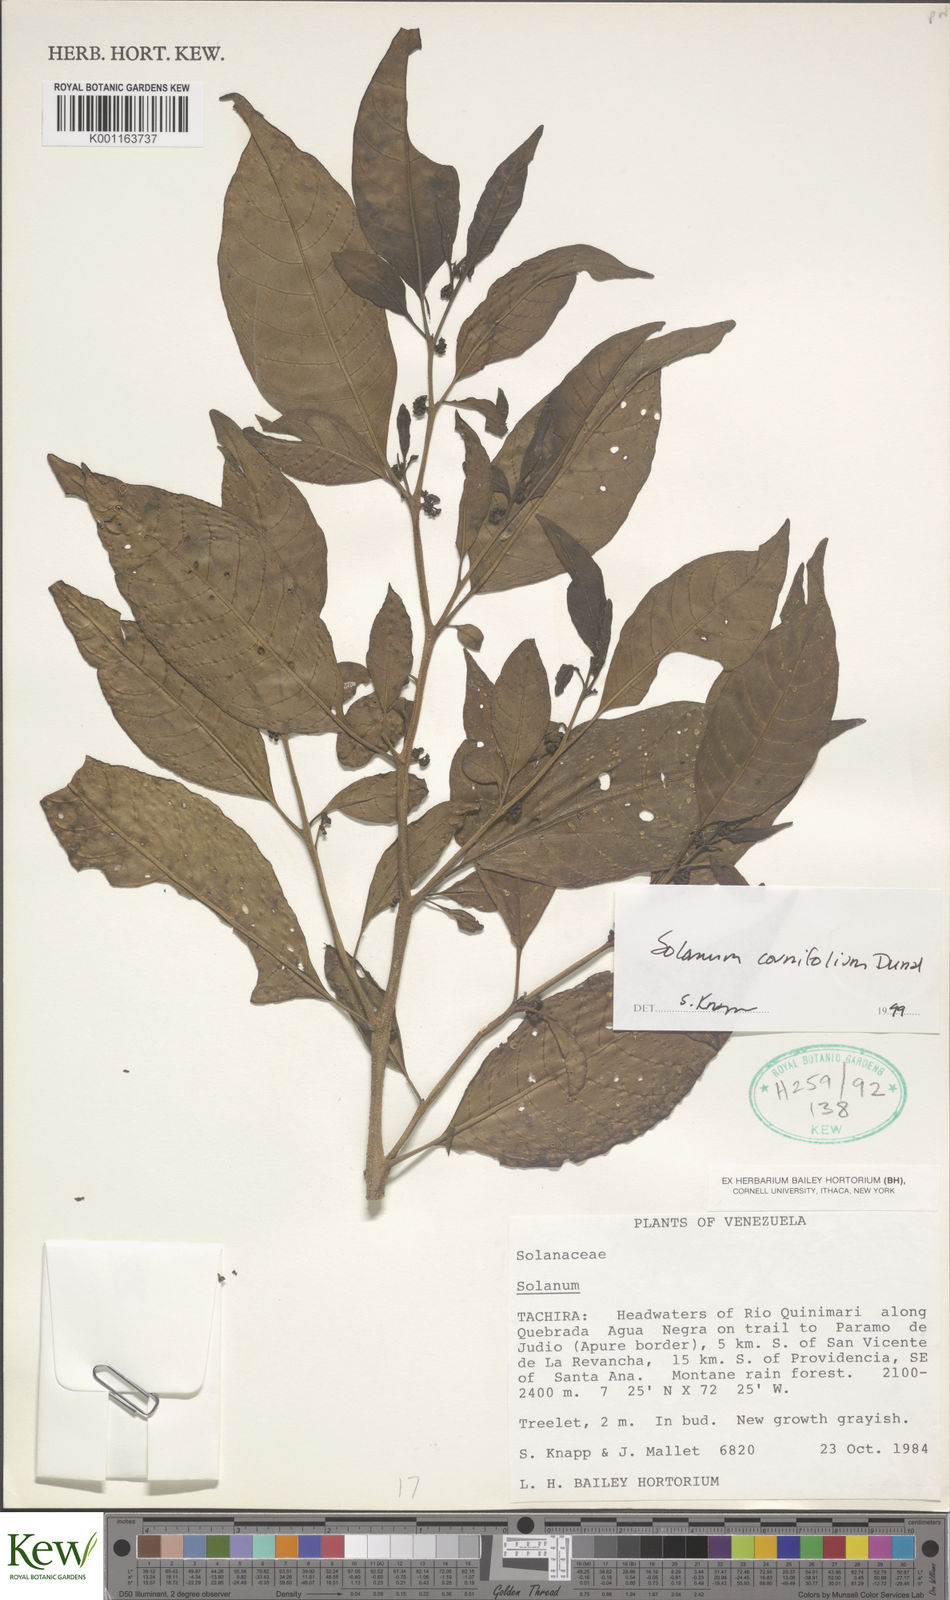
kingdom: Plantae
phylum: Tracheophyta
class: Magnoliopsida
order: Solanales
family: Solanaceae
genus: Solanum
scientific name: Solanum cornifolium
